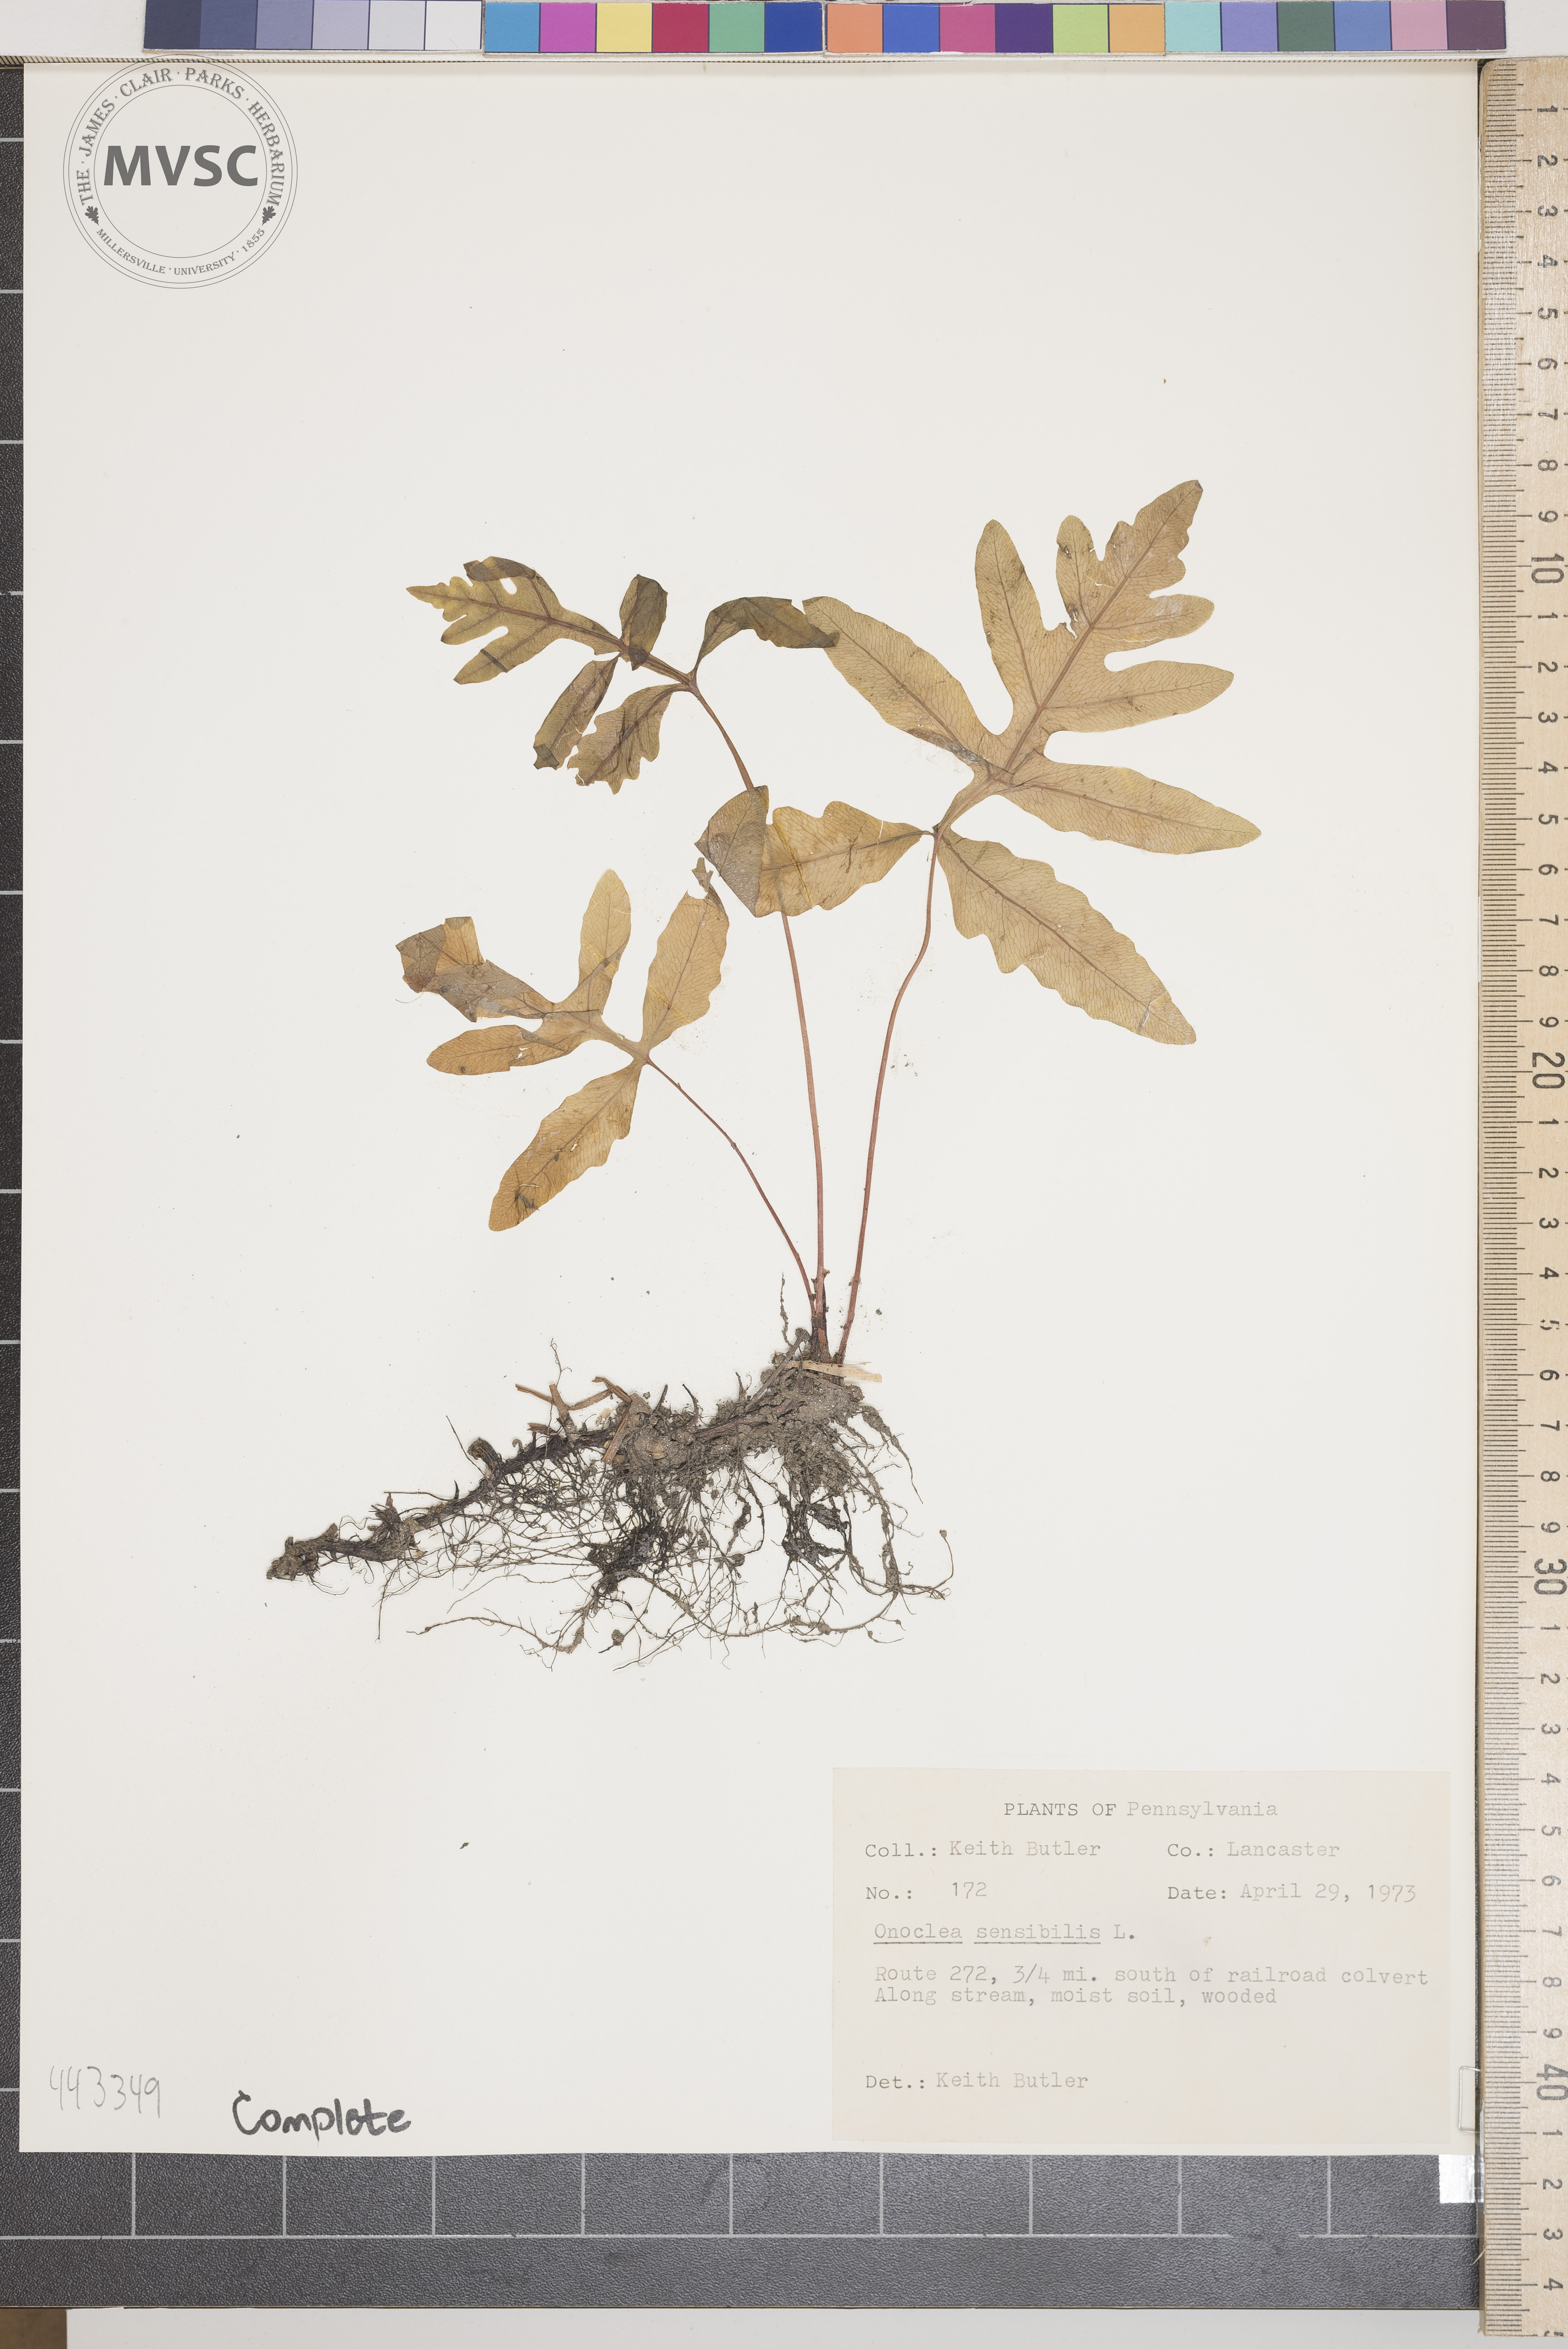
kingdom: Plantae
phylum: Tracheophyta
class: Polypodiopsida
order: Polypodiales
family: Onocleaceae
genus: Onoclea
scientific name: Onoclea sensibilis
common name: Sensitive fern
